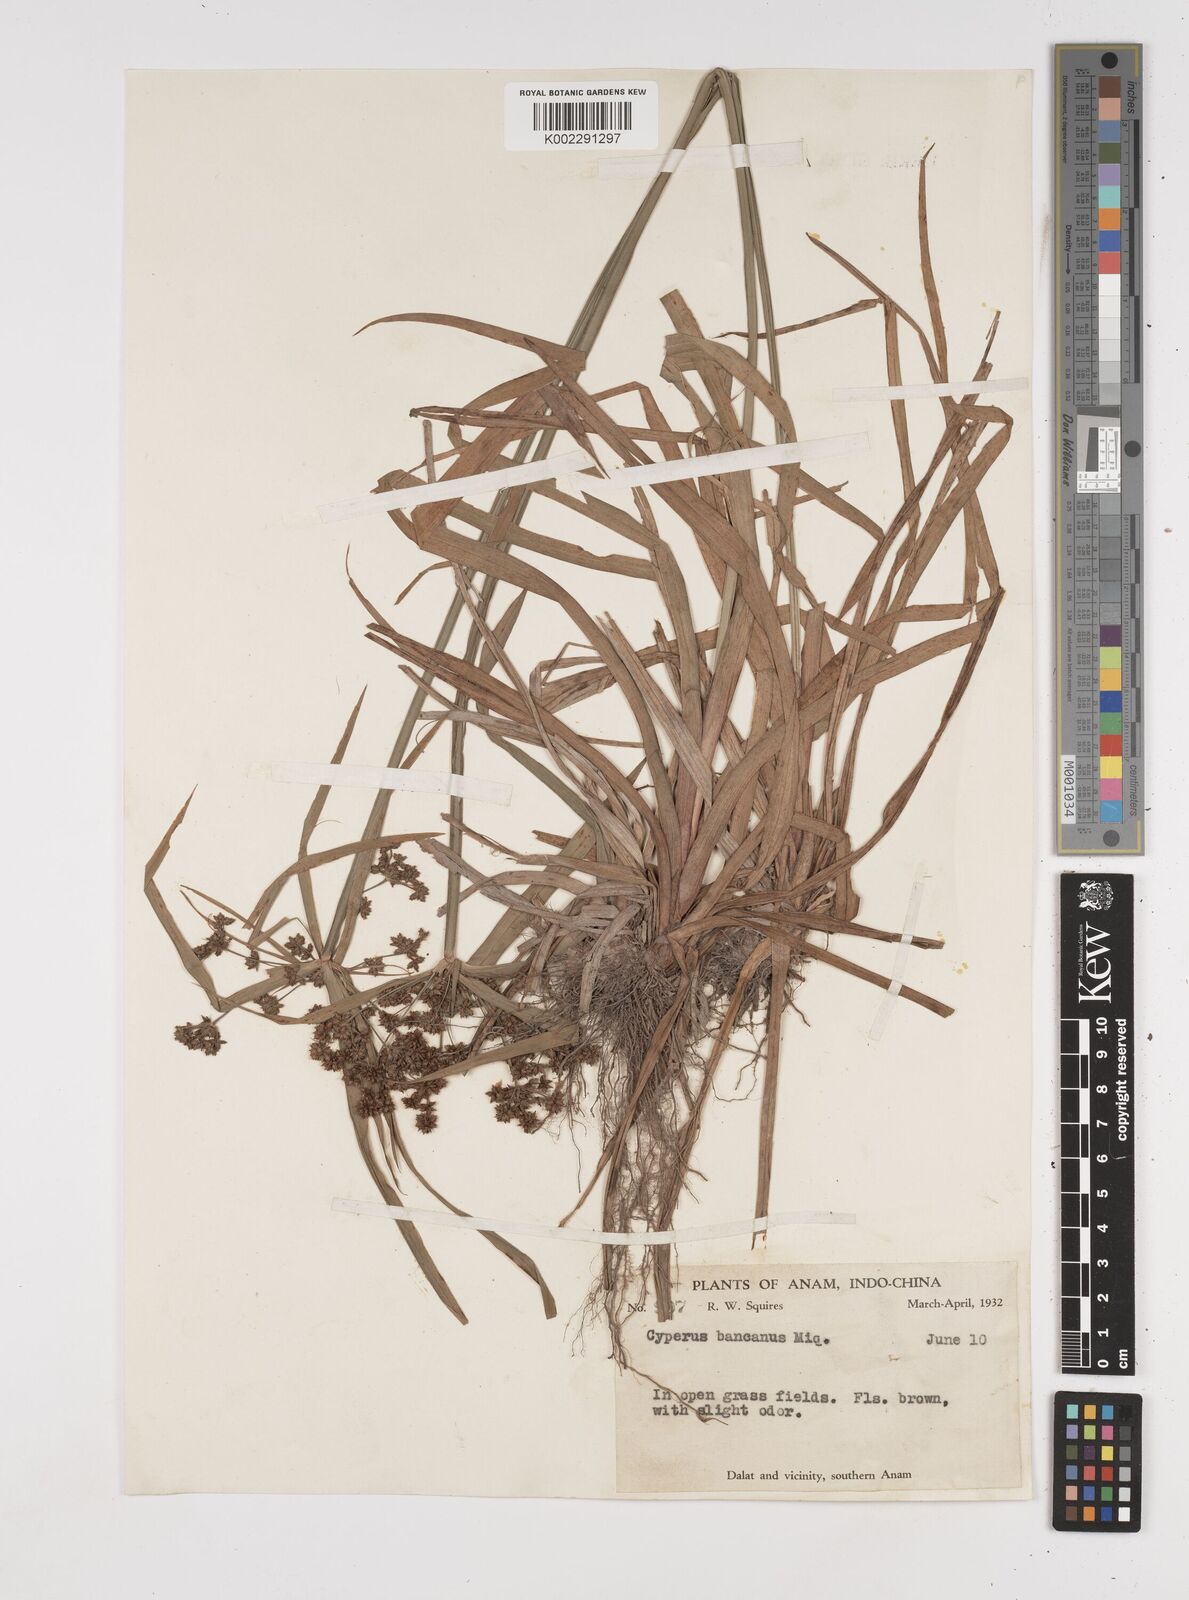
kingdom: Plantae
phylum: Tracheophyta
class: Liliopsida
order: Poales
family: Cyperaceae
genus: Cyperus
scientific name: Cyperus trialatus
